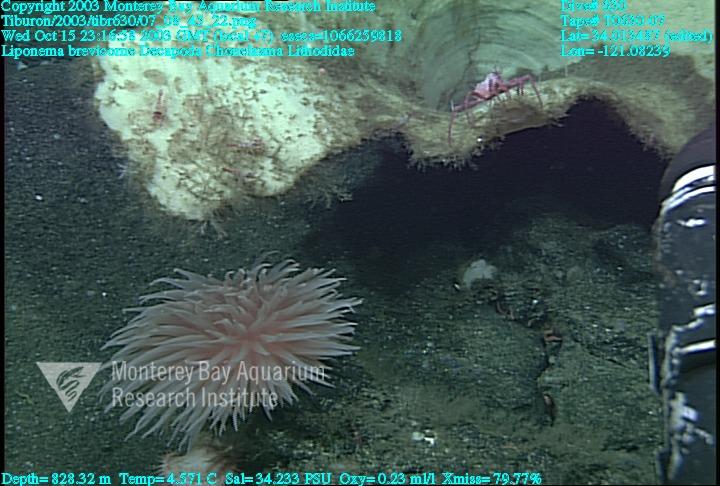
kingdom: Animalia
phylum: Porifera
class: Hexactinellida
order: Sceptrulophora
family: Euretidae
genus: Chonelasma
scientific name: Chonelasma
